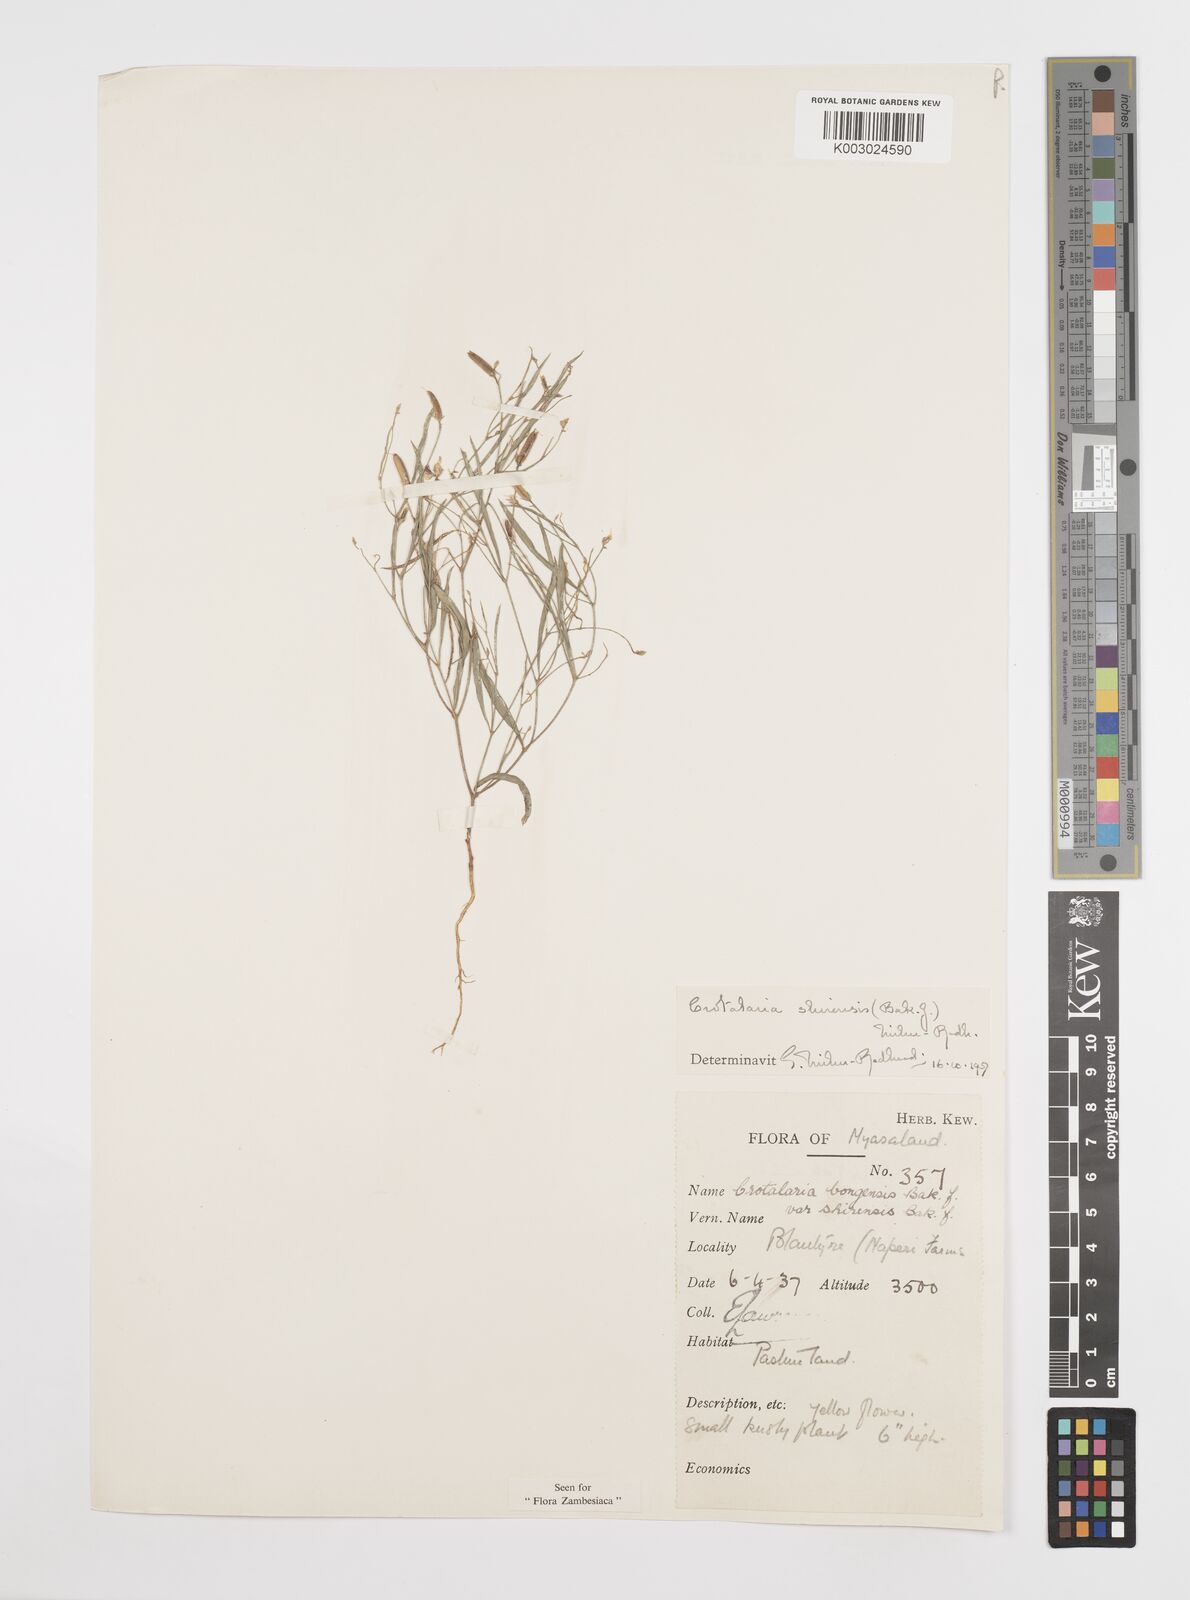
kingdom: Plantae
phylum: Tracheophyta
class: Magnoliopsida
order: Fabales
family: Fabaceae
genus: Crotalaria
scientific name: Crotalaria shirensis
